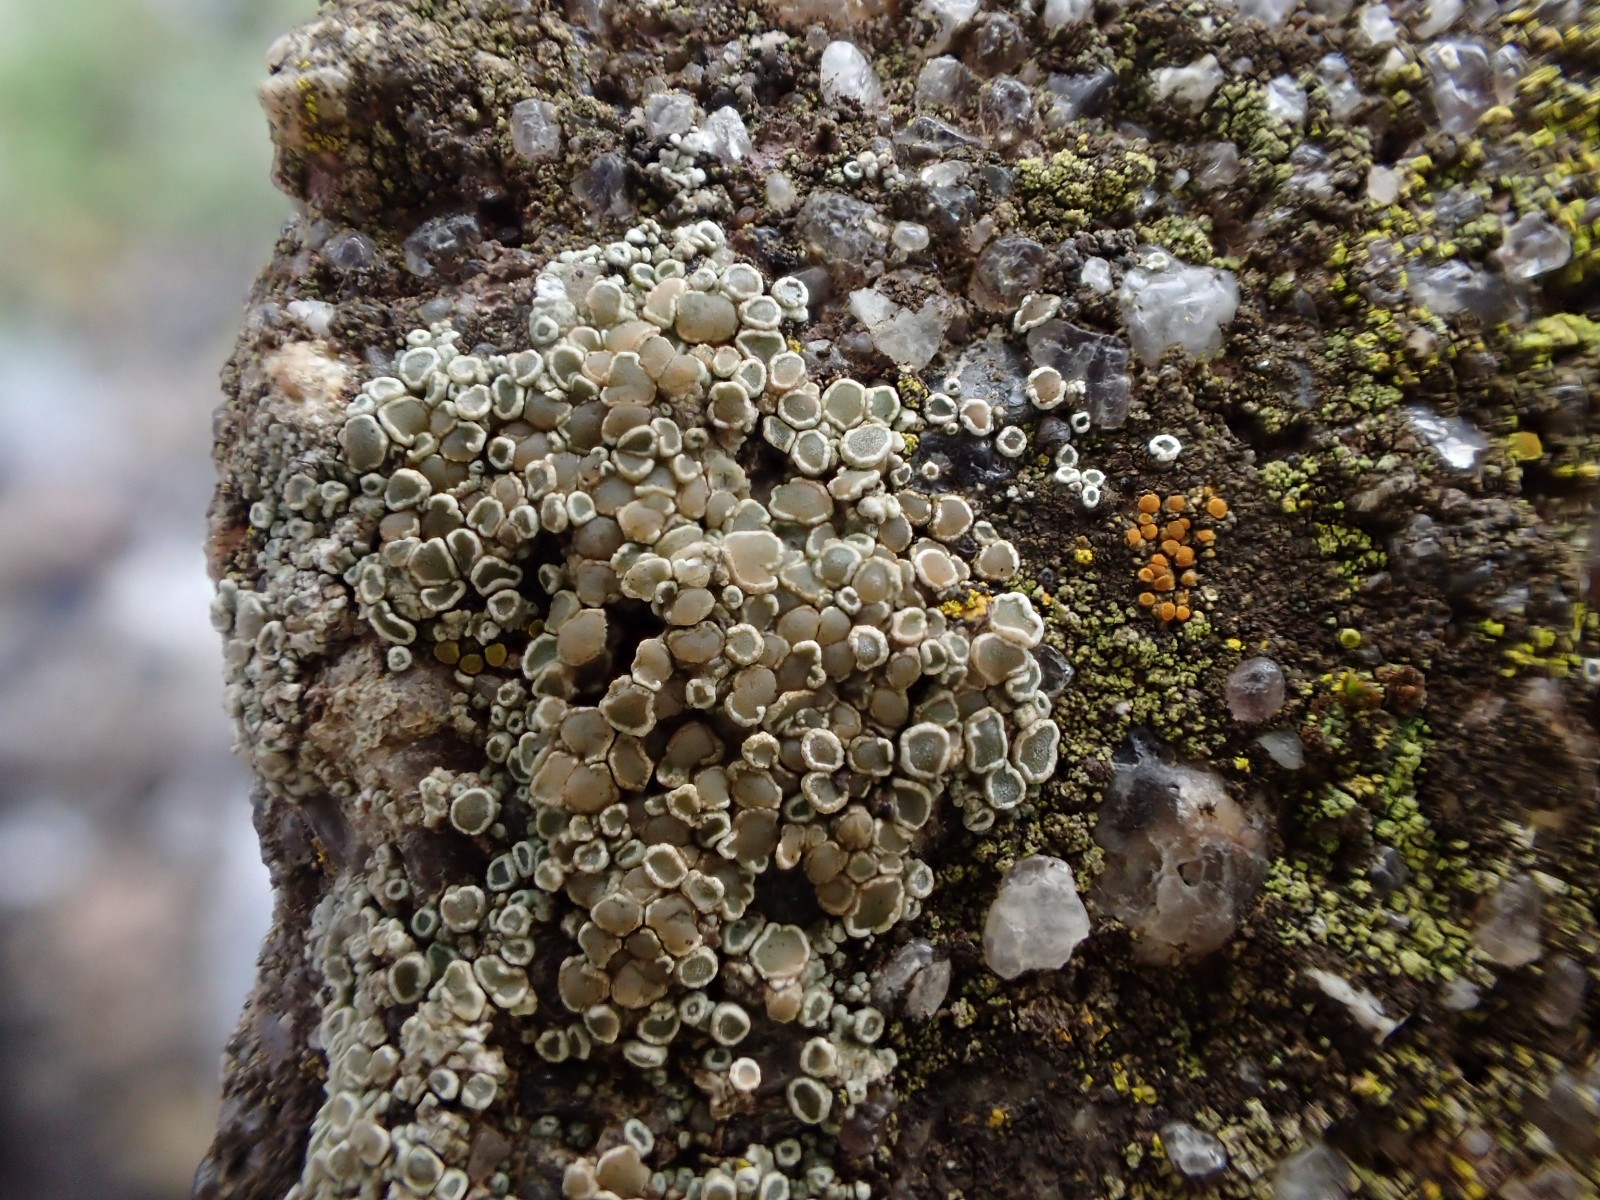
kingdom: Fungi
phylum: Ascomycota
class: Lecanoromycetes
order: Lecanorales
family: Lecanoraceae
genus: Polyozosia
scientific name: Polyozosia albescens
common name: cement-kantskivelav
